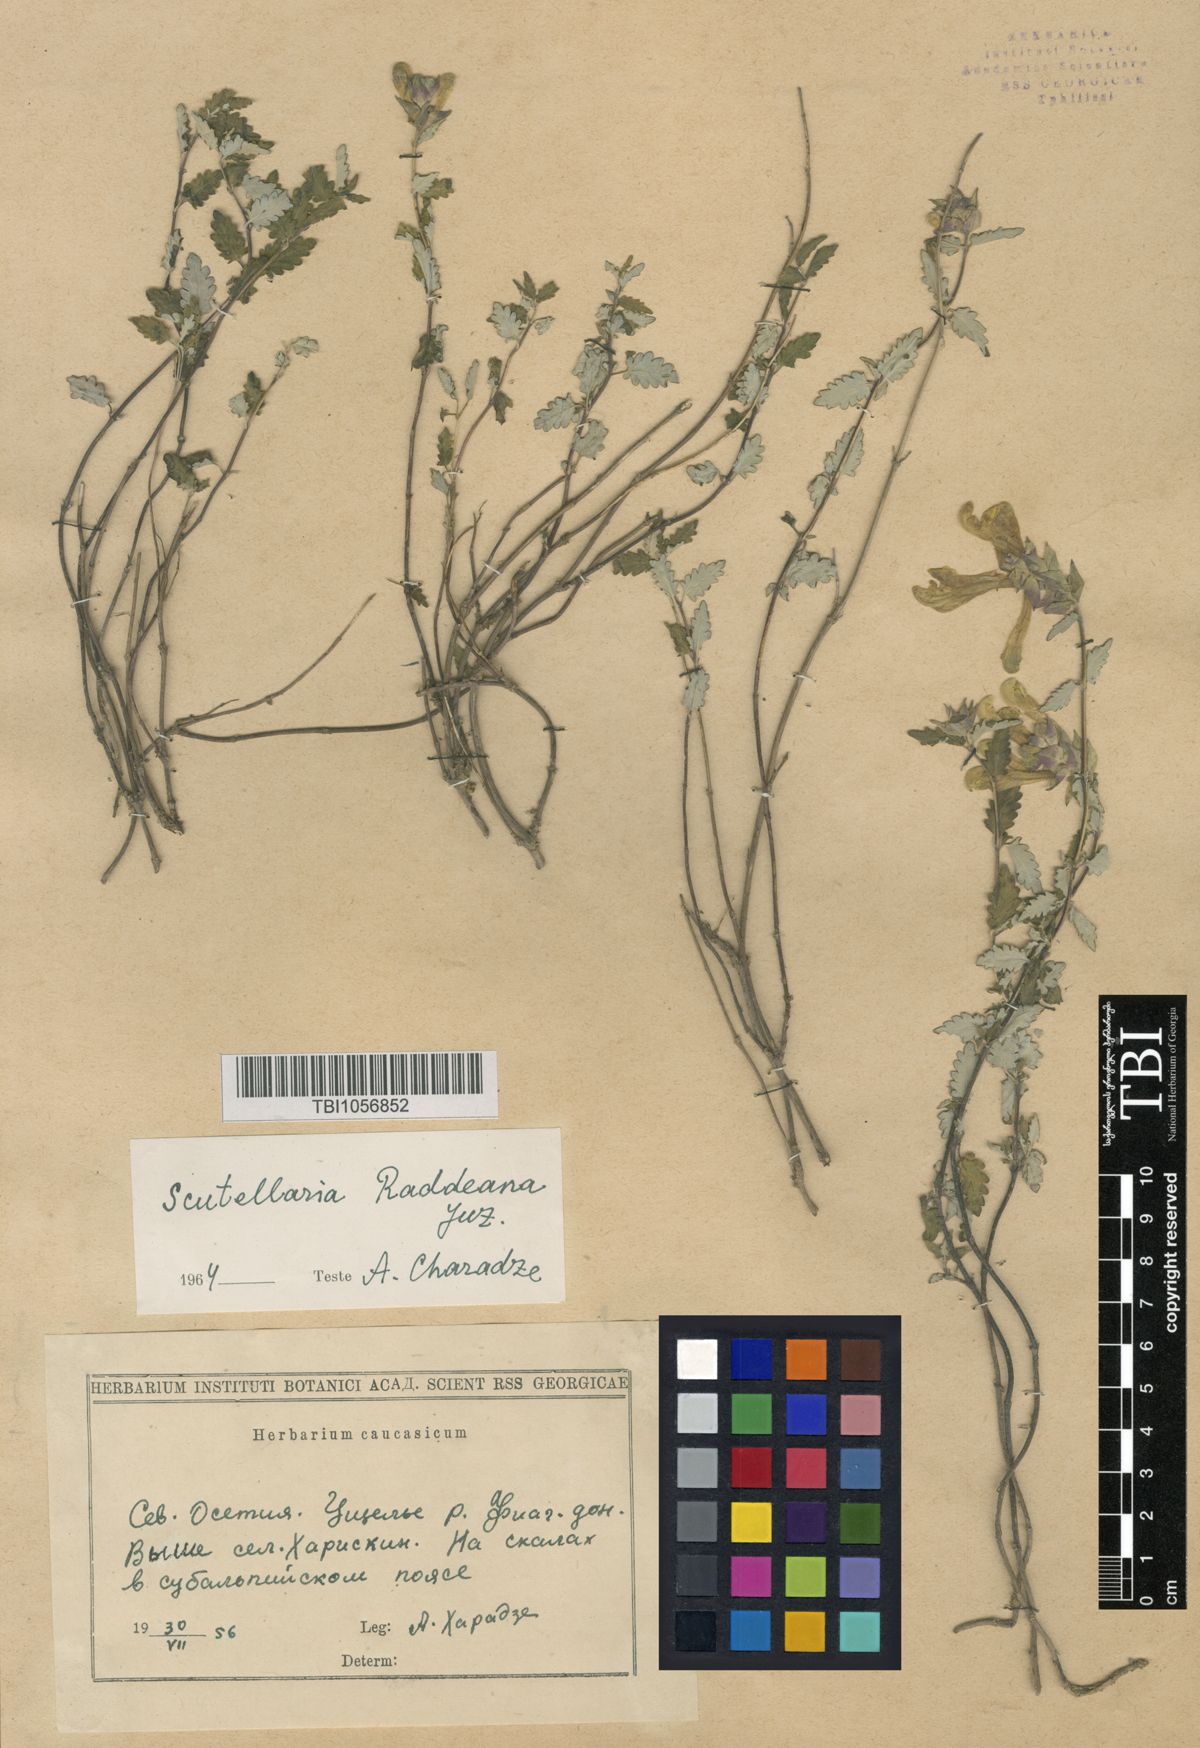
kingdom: Plantae
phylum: Tracheophyta
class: Magnoliopsida
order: Lamiales
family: Lamiaceae
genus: Scutellaria
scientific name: Scutellaria raddeana
